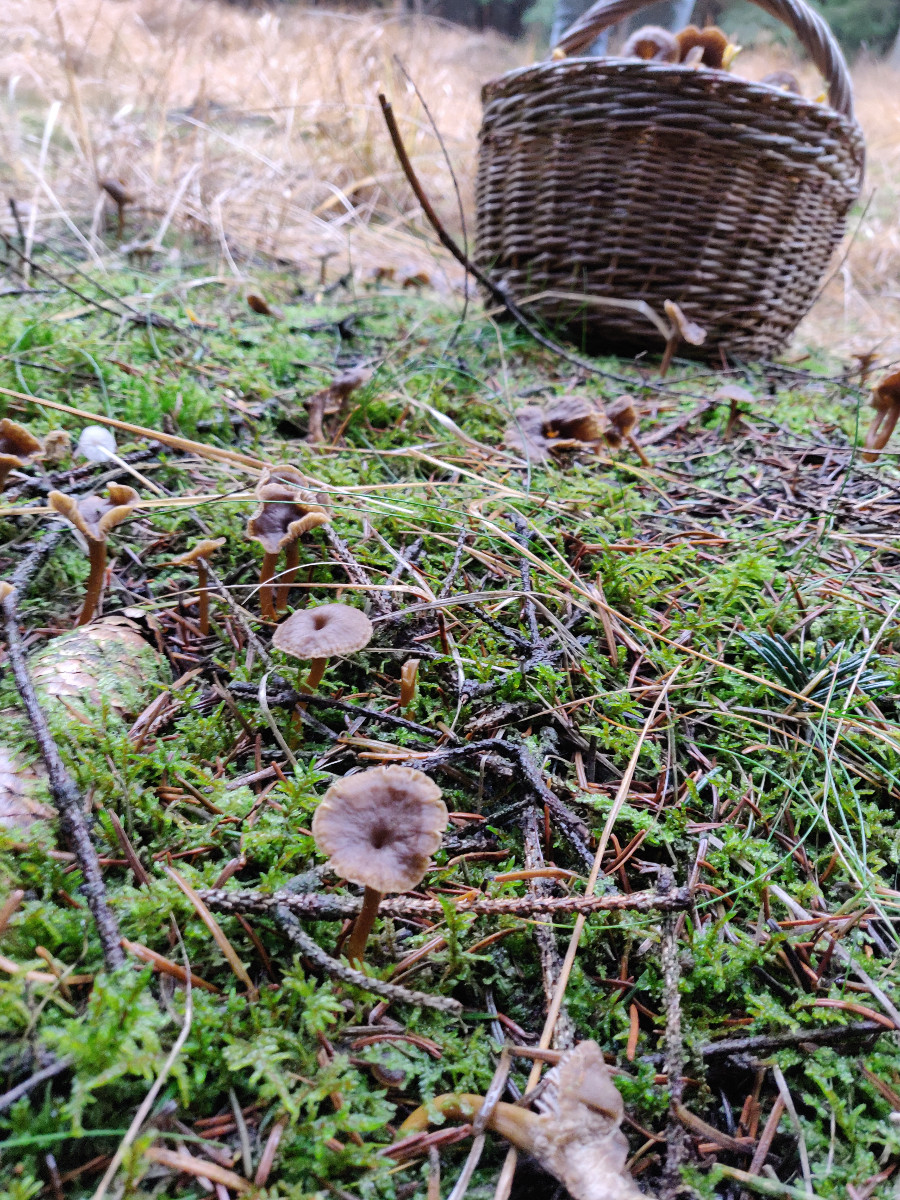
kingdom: Fungi
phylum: Basidiomycota
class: Agaricomycetes
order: Cantharellales
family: Hydnaceae
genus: Craterellus
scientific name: Craterellus tubaeformis
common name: tragt-kantarel
